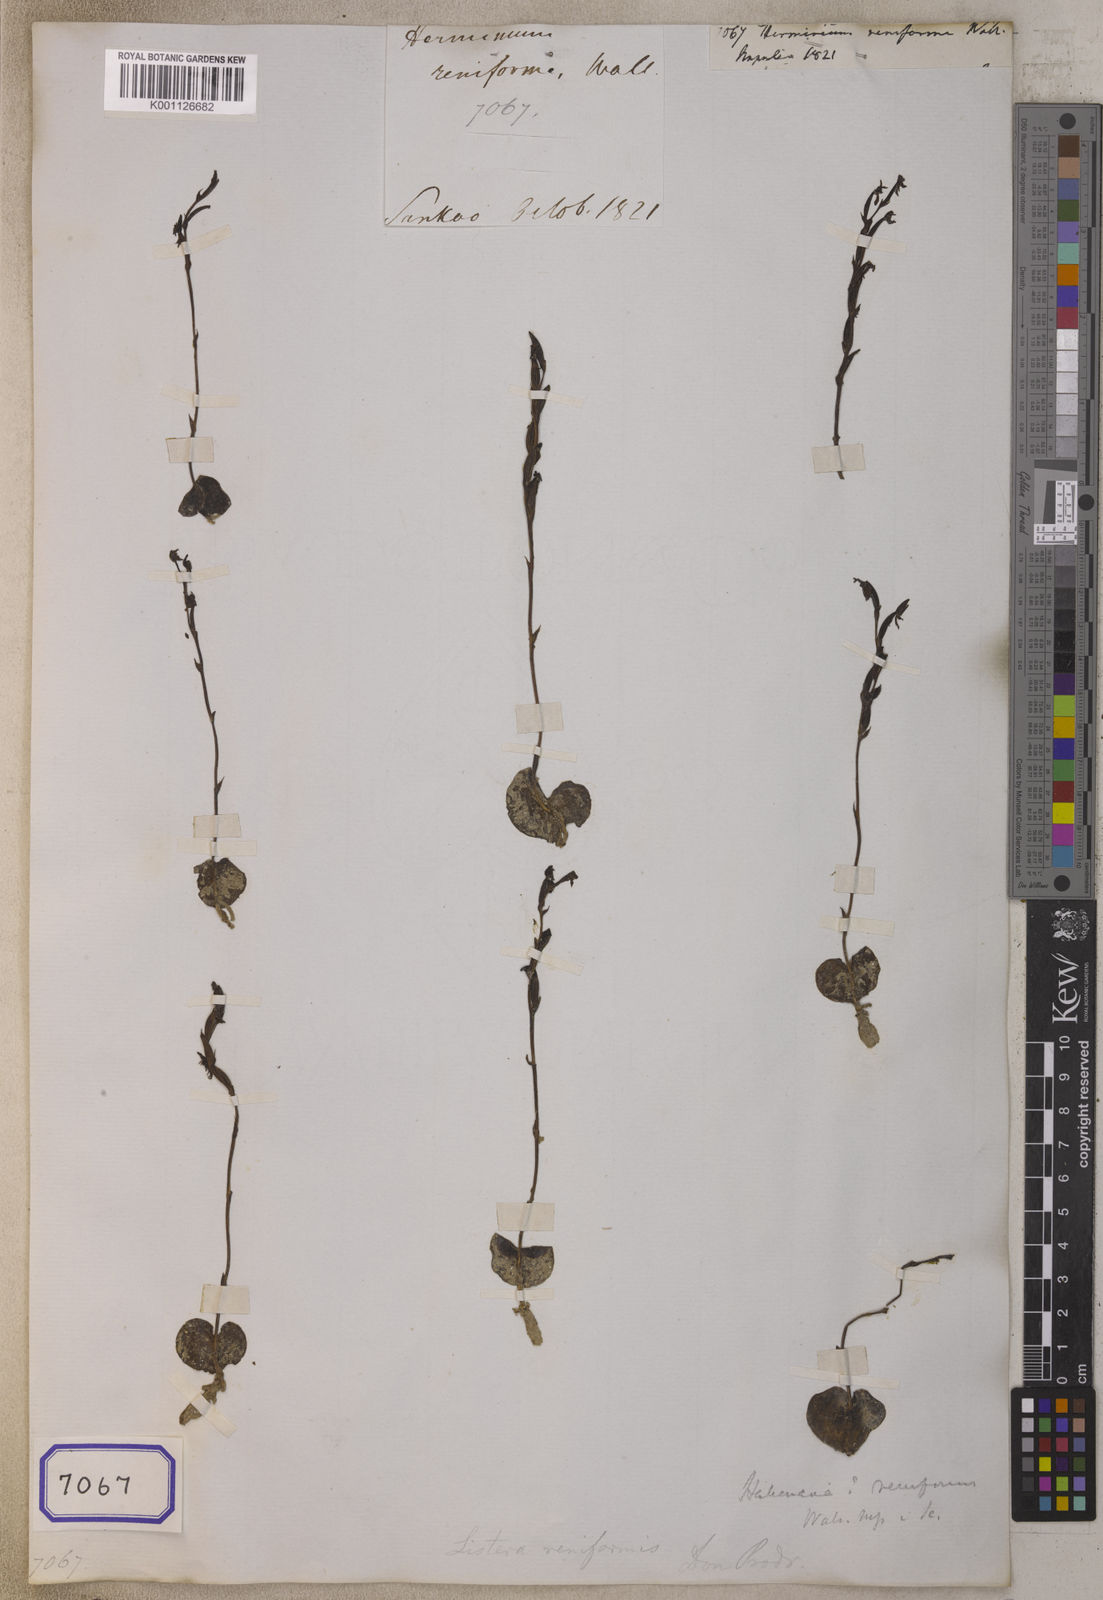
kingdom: Plantae
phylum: Tracheophyta
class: Liliopsida
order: Asparagales
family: Orchidaceae
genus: Herminium
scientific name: Herminium
